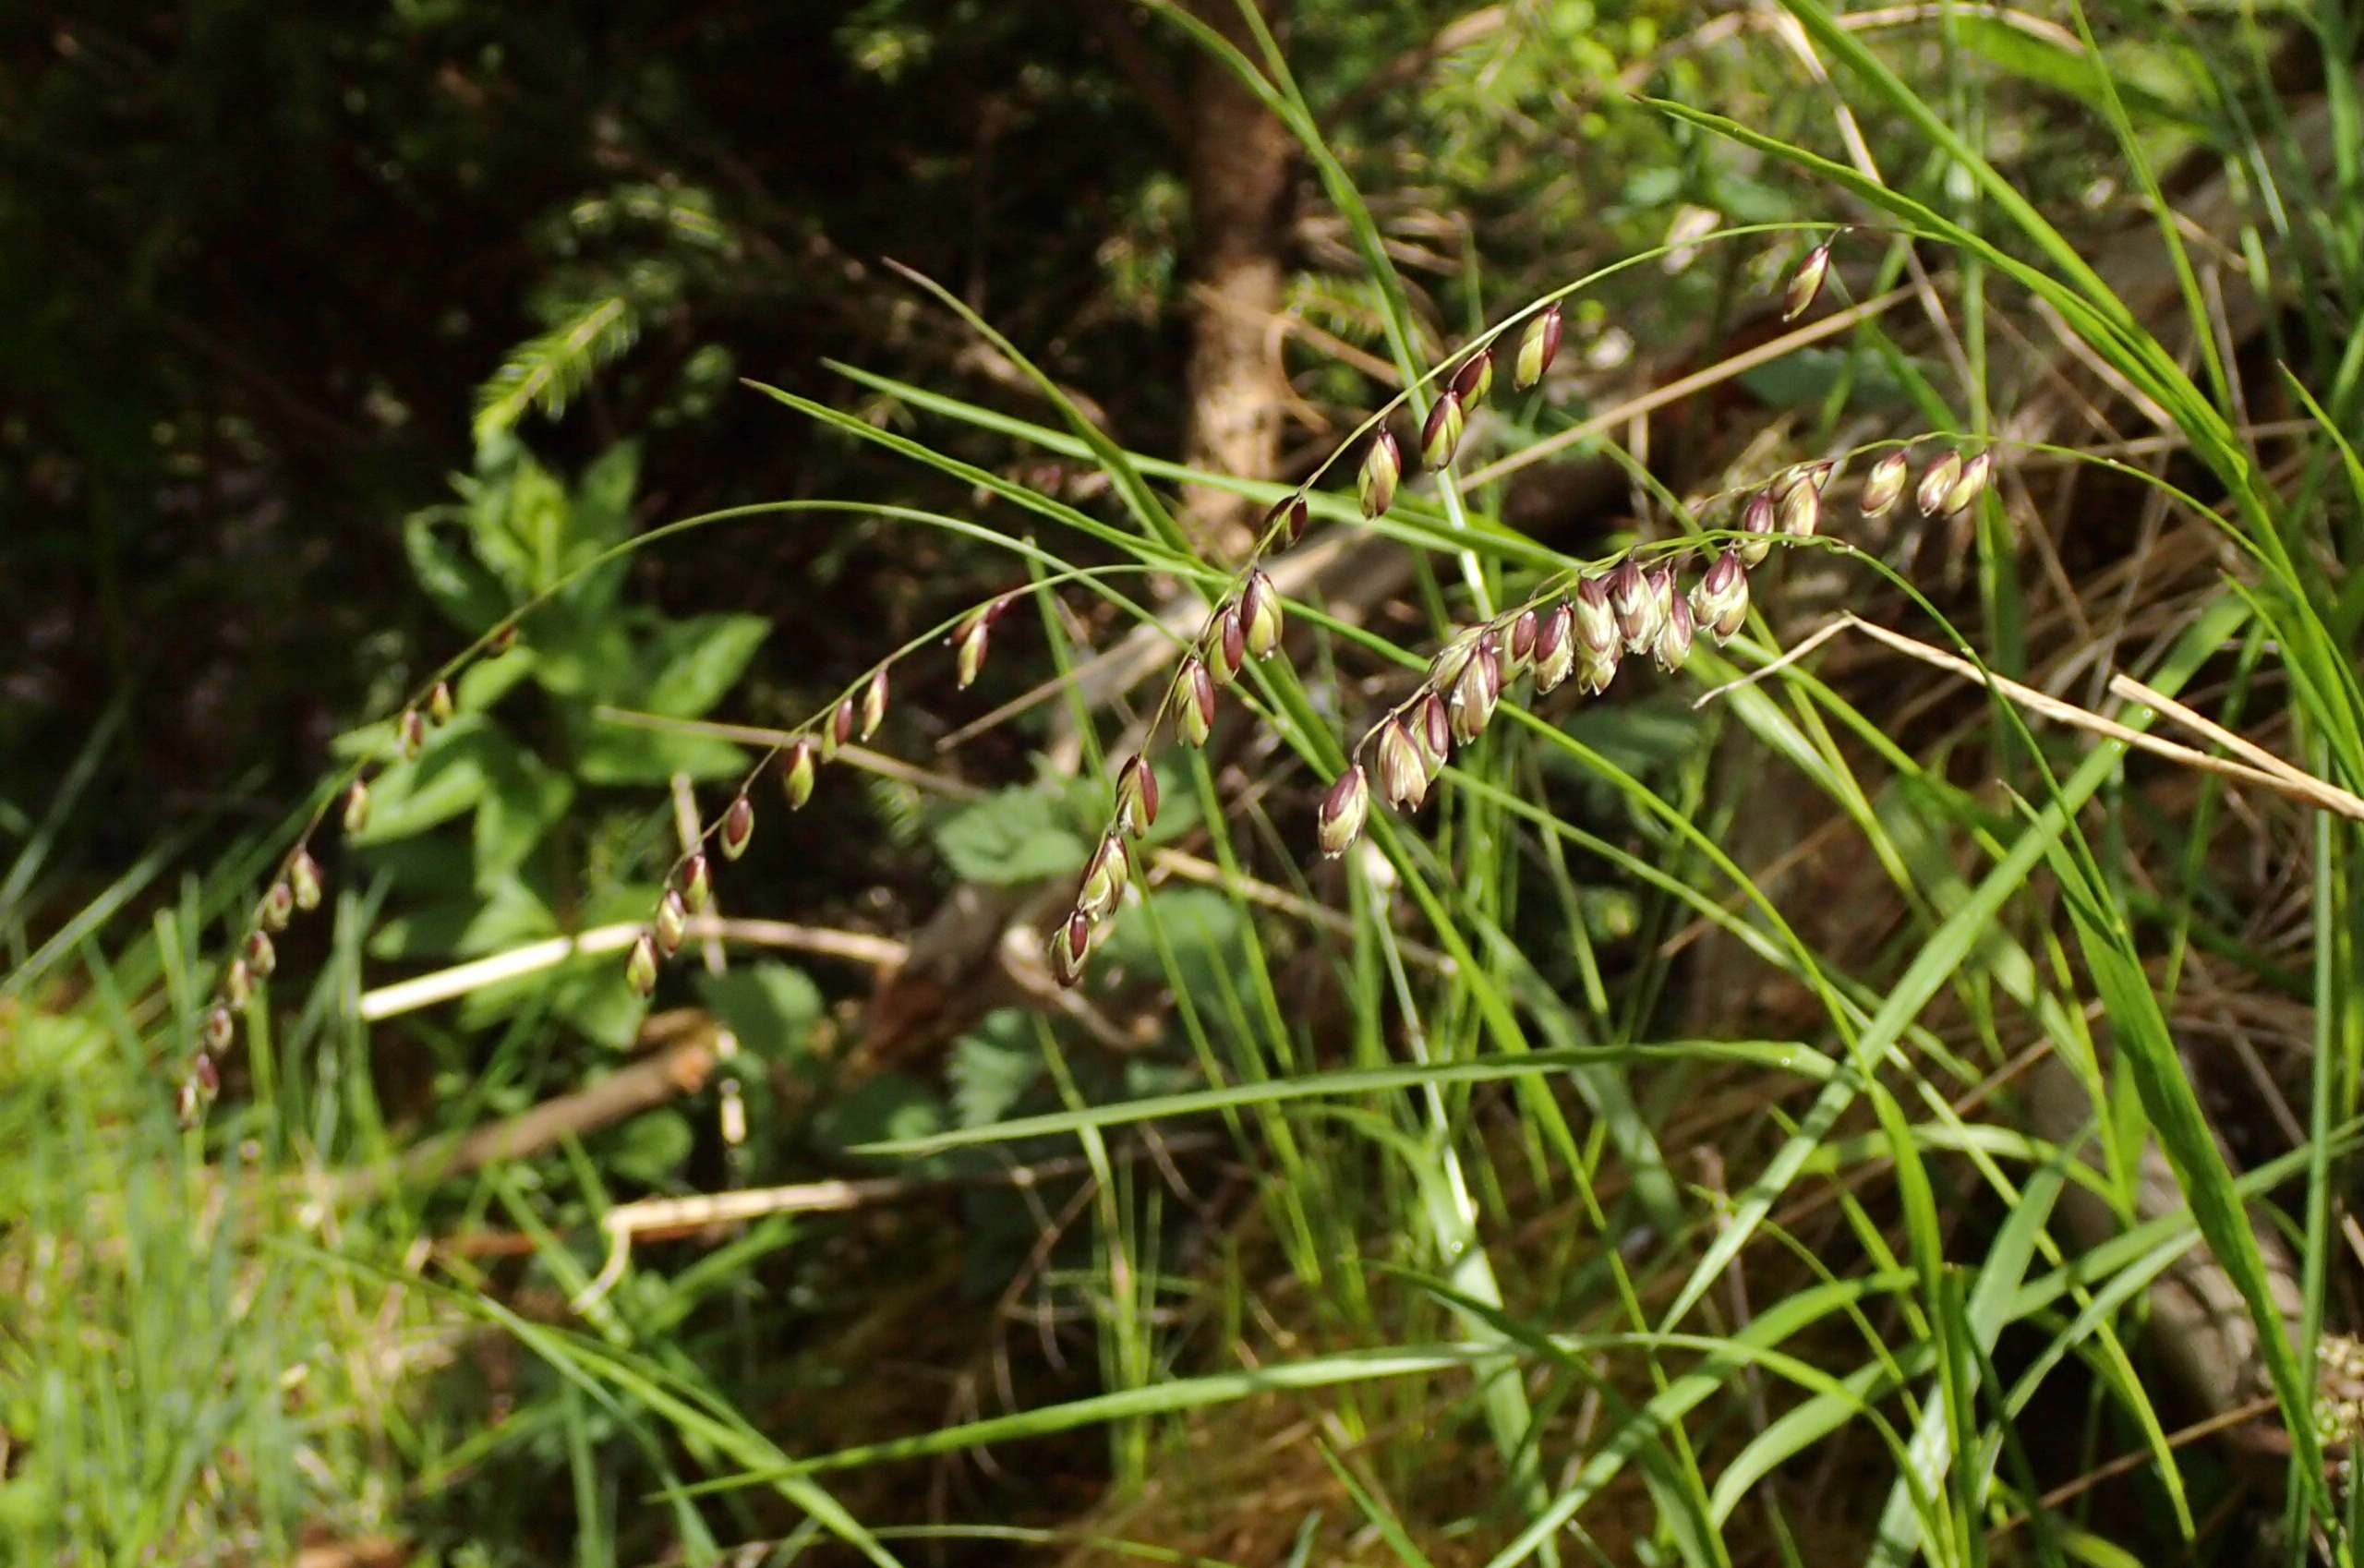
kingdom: Plantae
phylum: Tracheophyta
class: Liliopsida
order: Poales
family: Poaceae
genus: Melica
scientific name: Melica nutans
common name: Nikkende flitteraks
